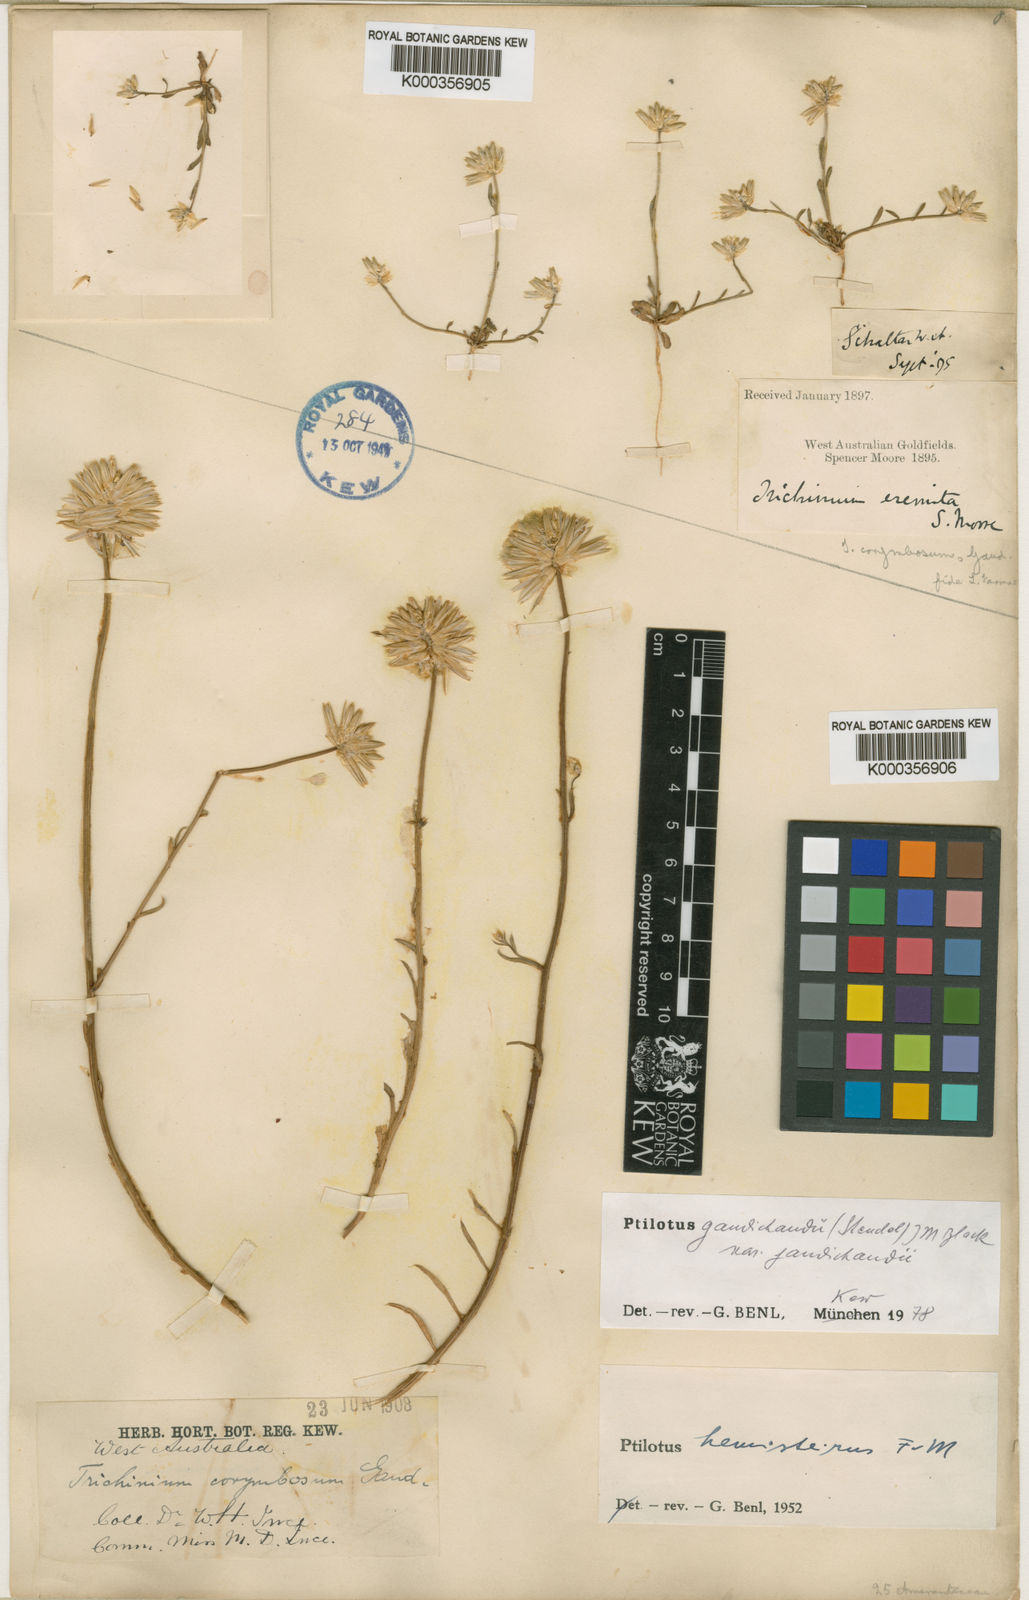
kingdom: Plantae
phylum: Tracheophyta
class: Magnoliopsida
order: Caryophyllales
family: Amaranthaceae
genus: Ptilotus
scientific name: Ptilotus
